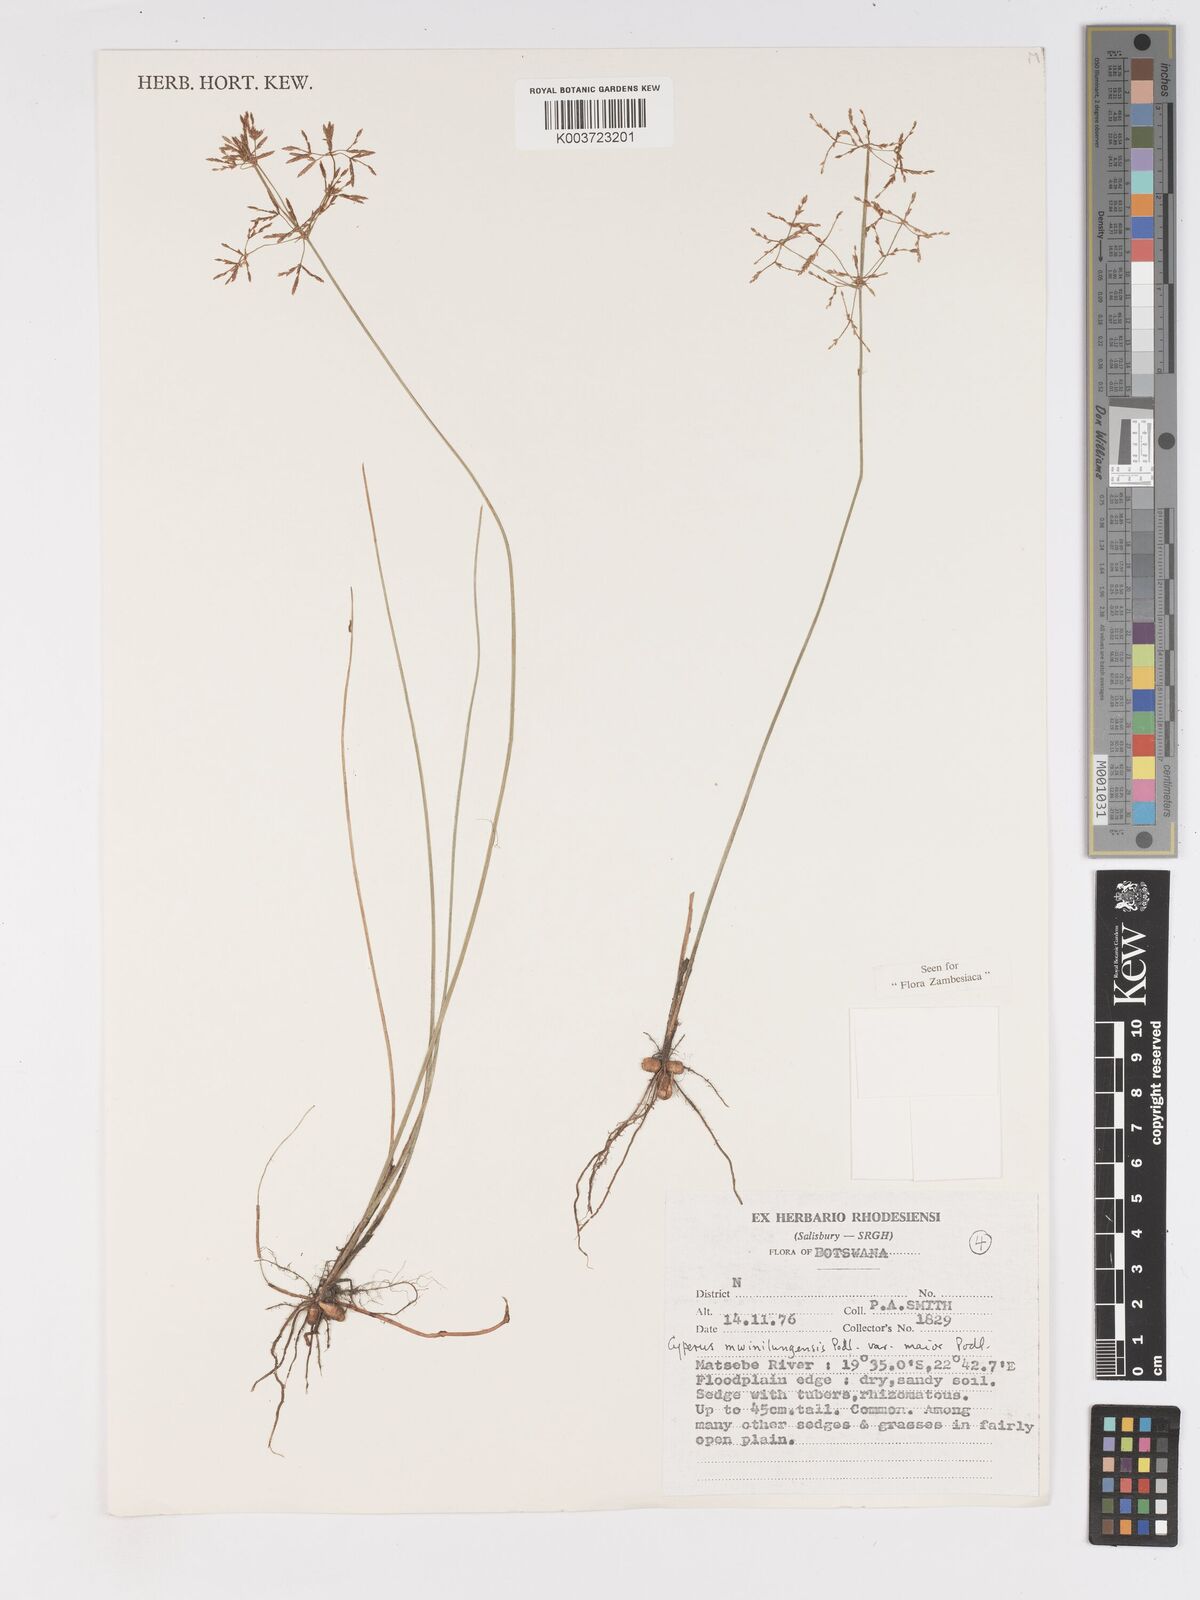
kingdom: Plantae
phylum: Tracheophyta
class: Liliopsida
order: Poales
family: Cyperaceae
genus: Cyperus
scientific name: Cyperus mwinilungensis
